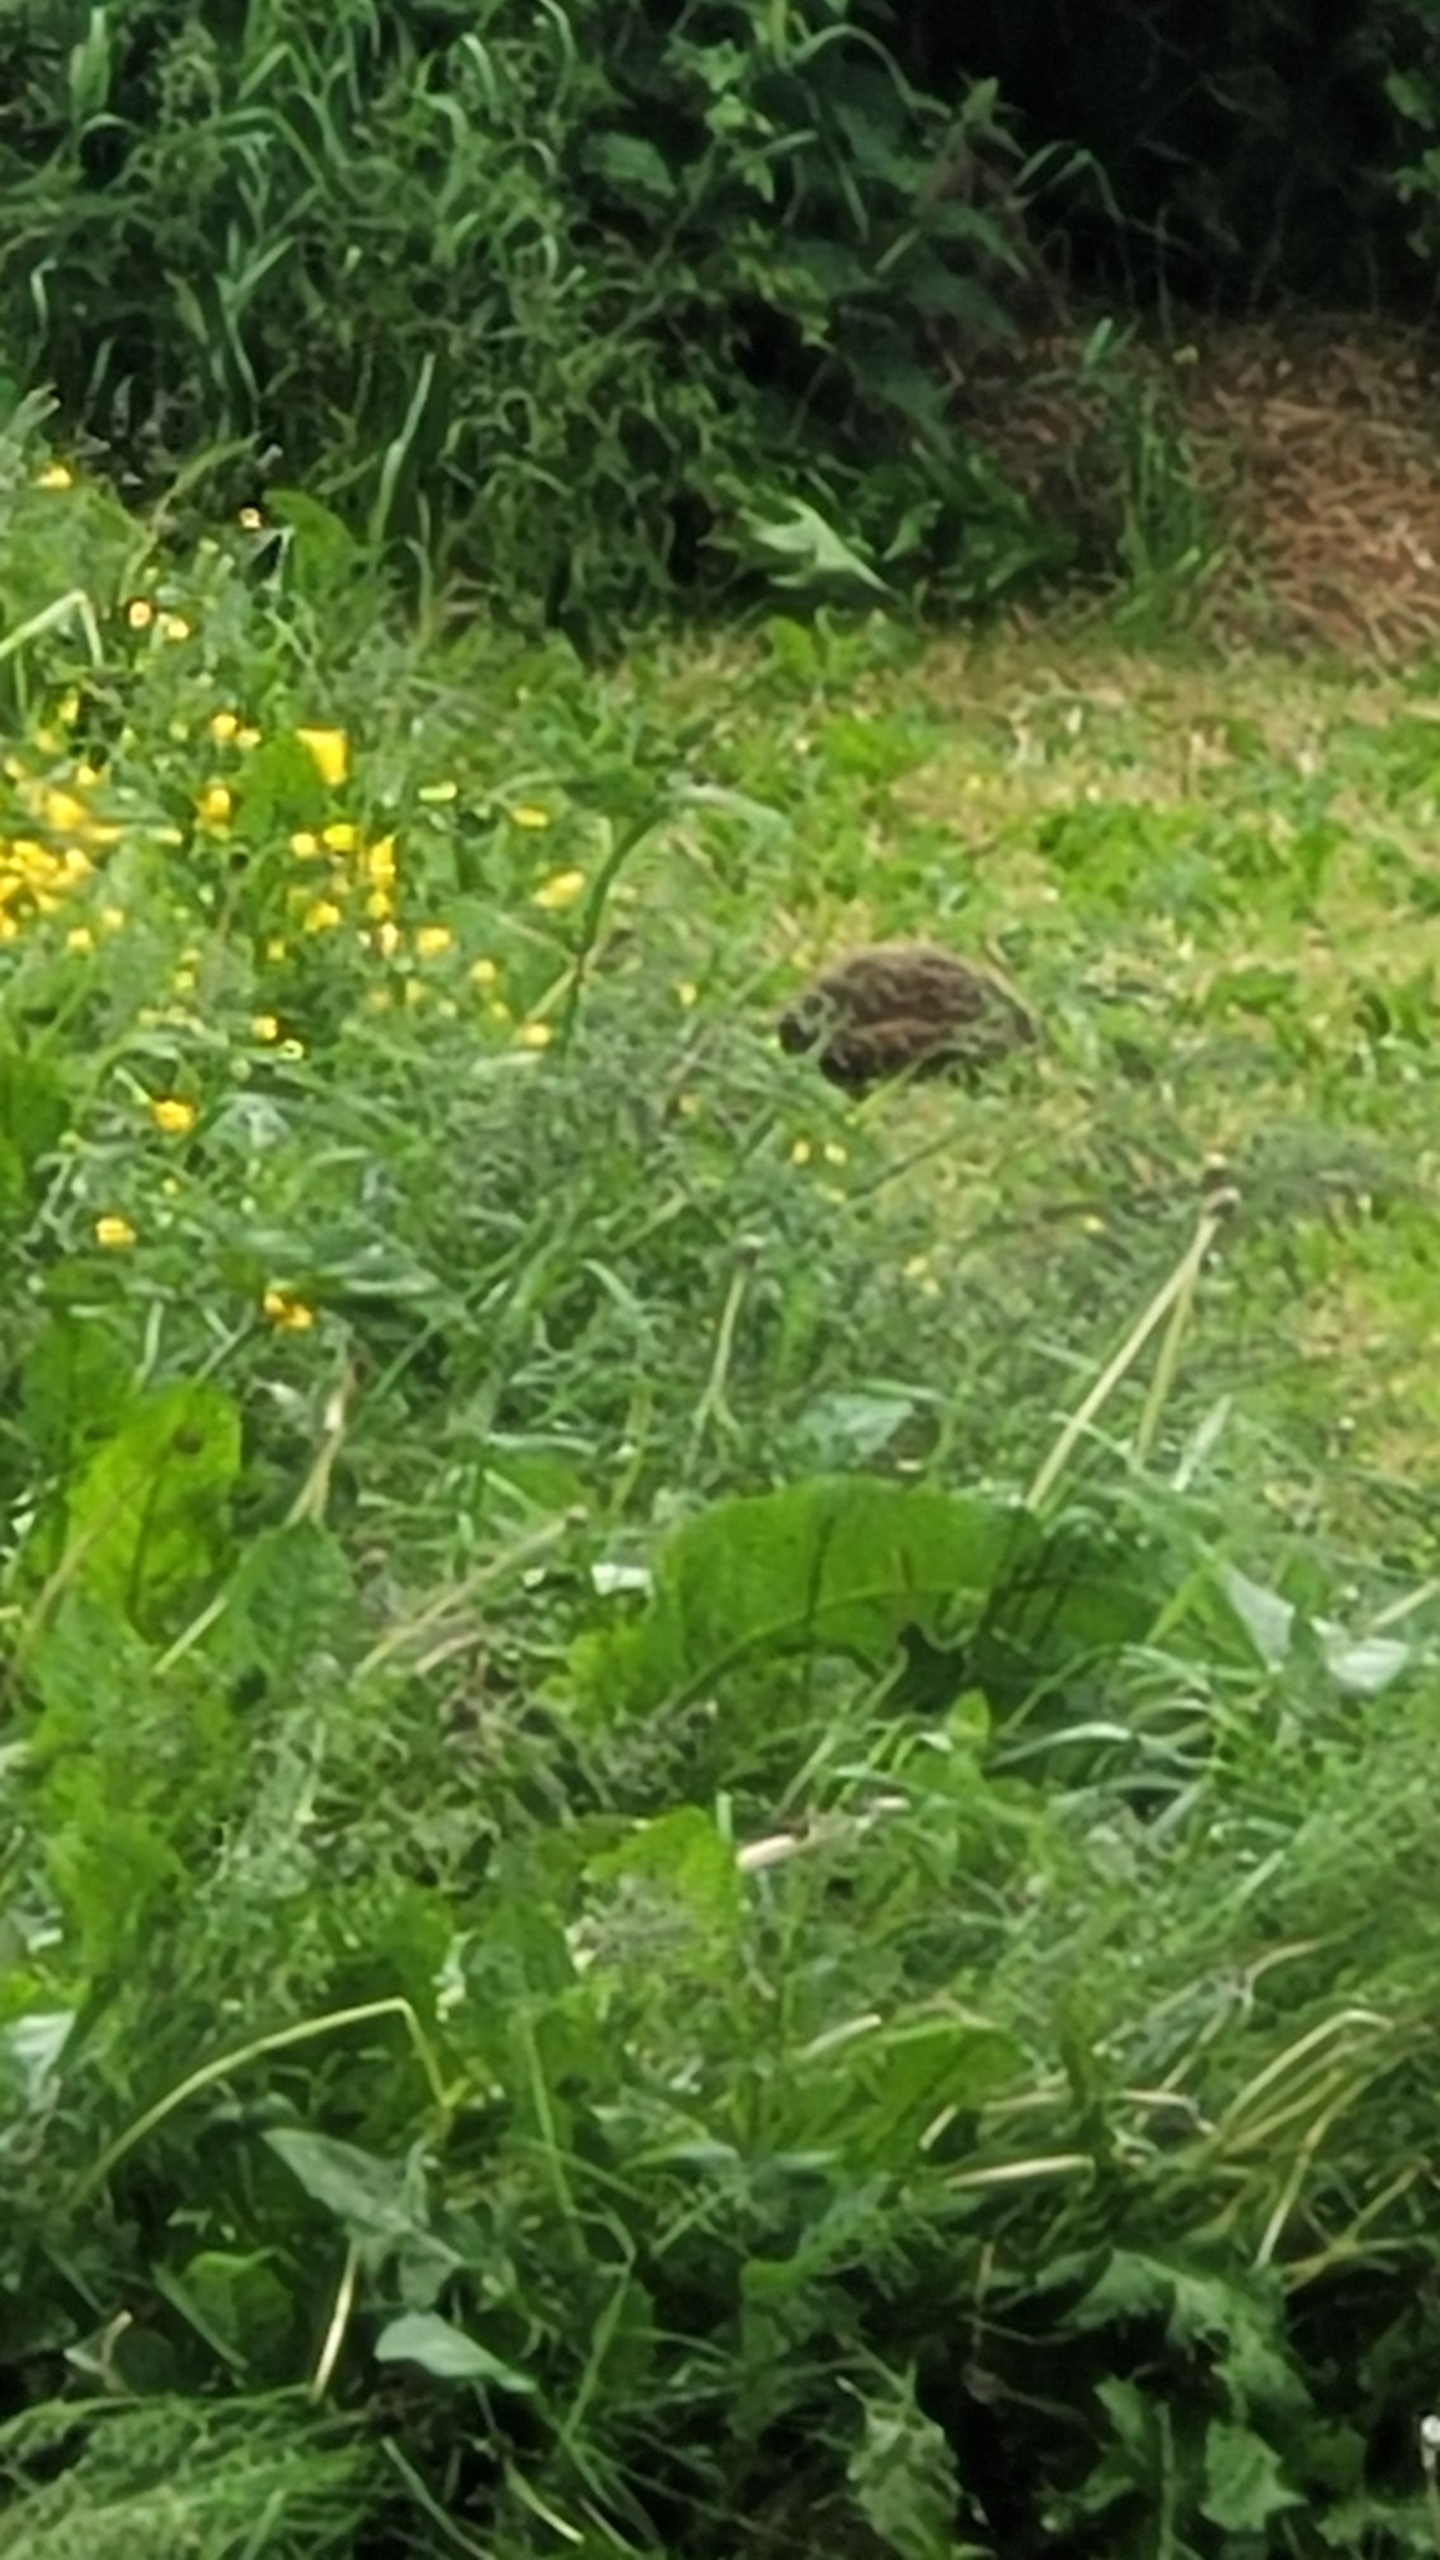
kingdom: Animalia
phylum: Chordata
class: Mammalia
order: Erinaceomorpha
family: Erinaceidae
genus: Erinaceus
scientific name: Erinaceus europaeus
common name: Pindsvin
